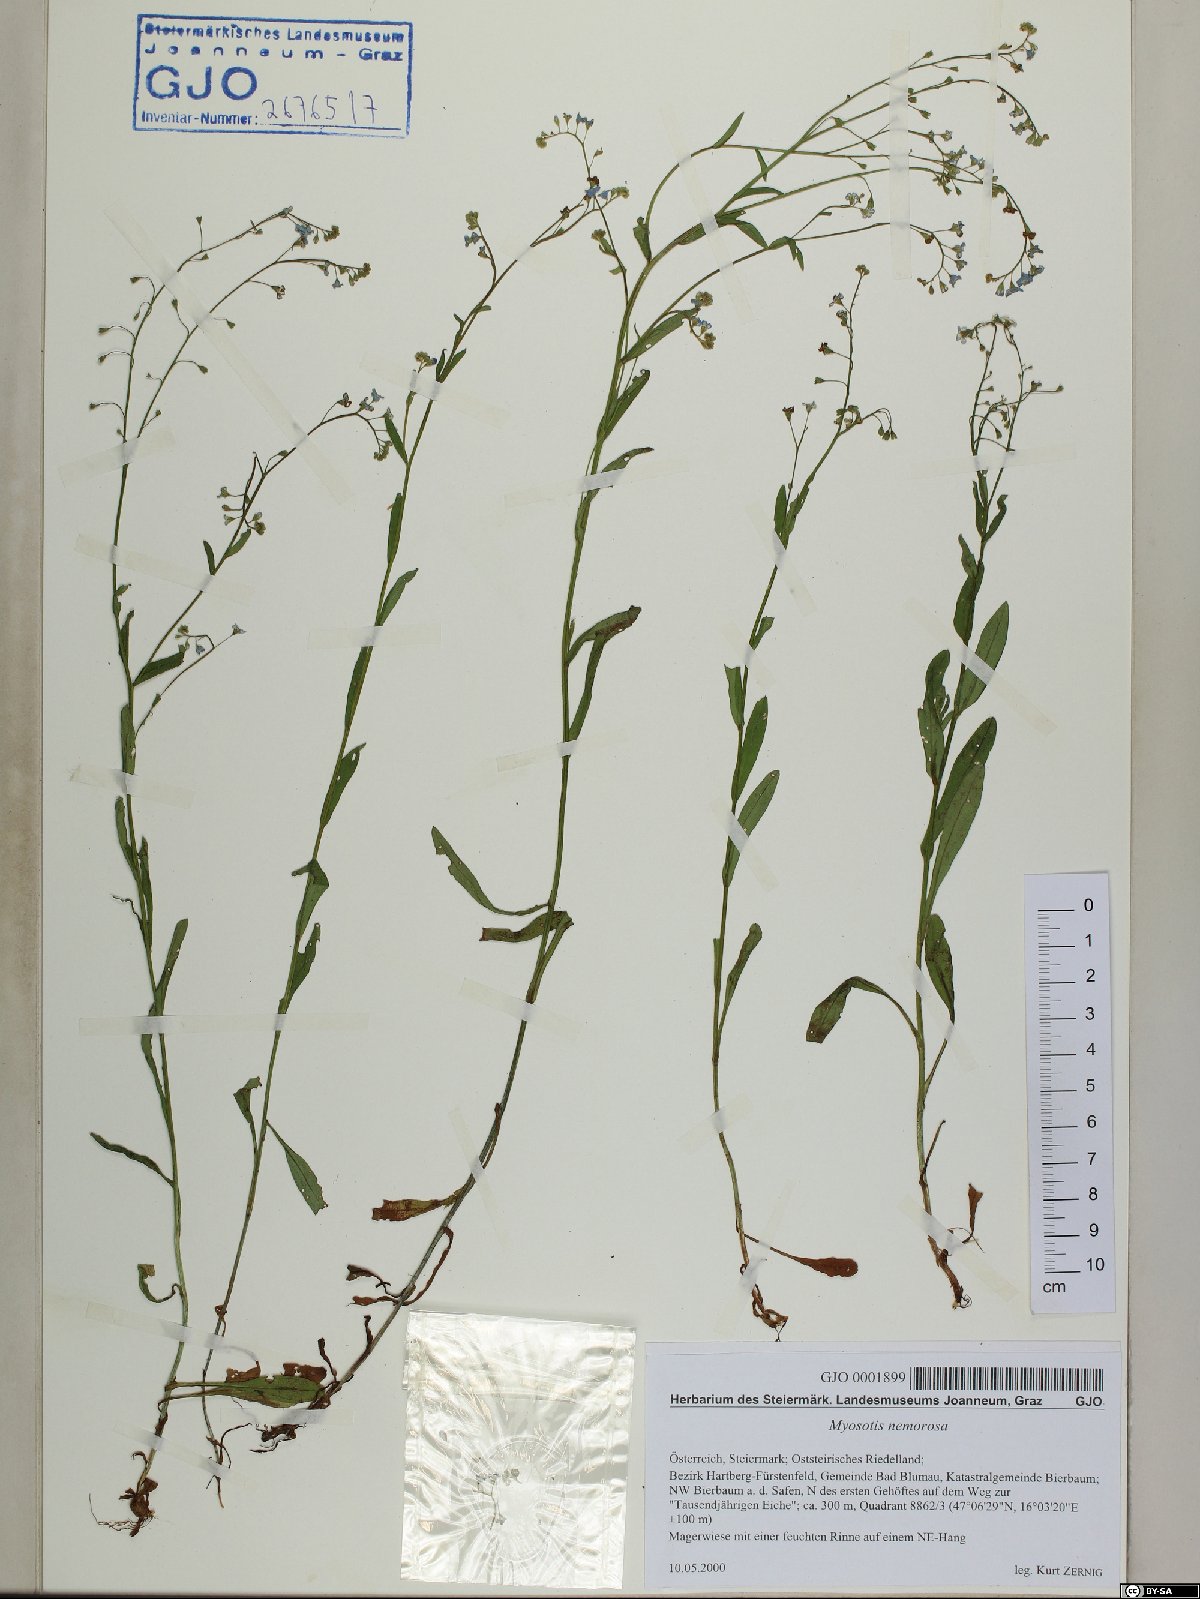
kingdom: Plantae
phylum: Tracheophyta
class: Magnoliopsida
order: Boraginales
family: Boraginaceae
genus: Myosotis
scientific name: Myosotis nemorosa
